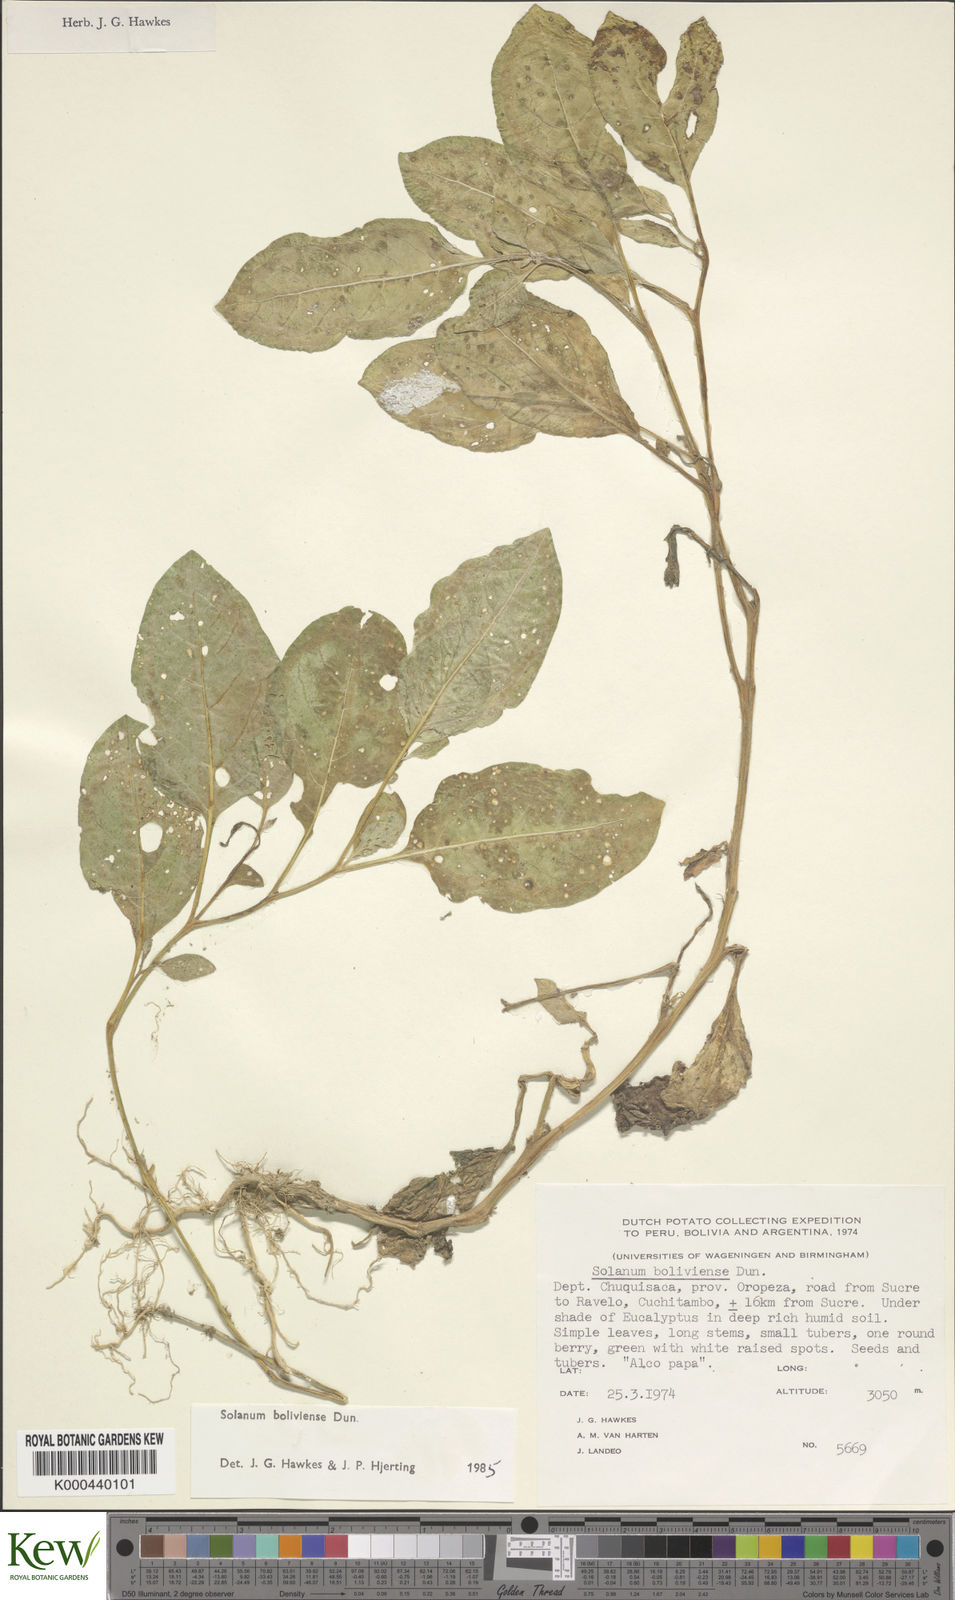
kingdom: Plantae
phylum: Tracheophyta
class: Magnoliopsida
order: Solanales
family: Solanaceae
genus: Solanum
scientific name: Solanum boliviense
